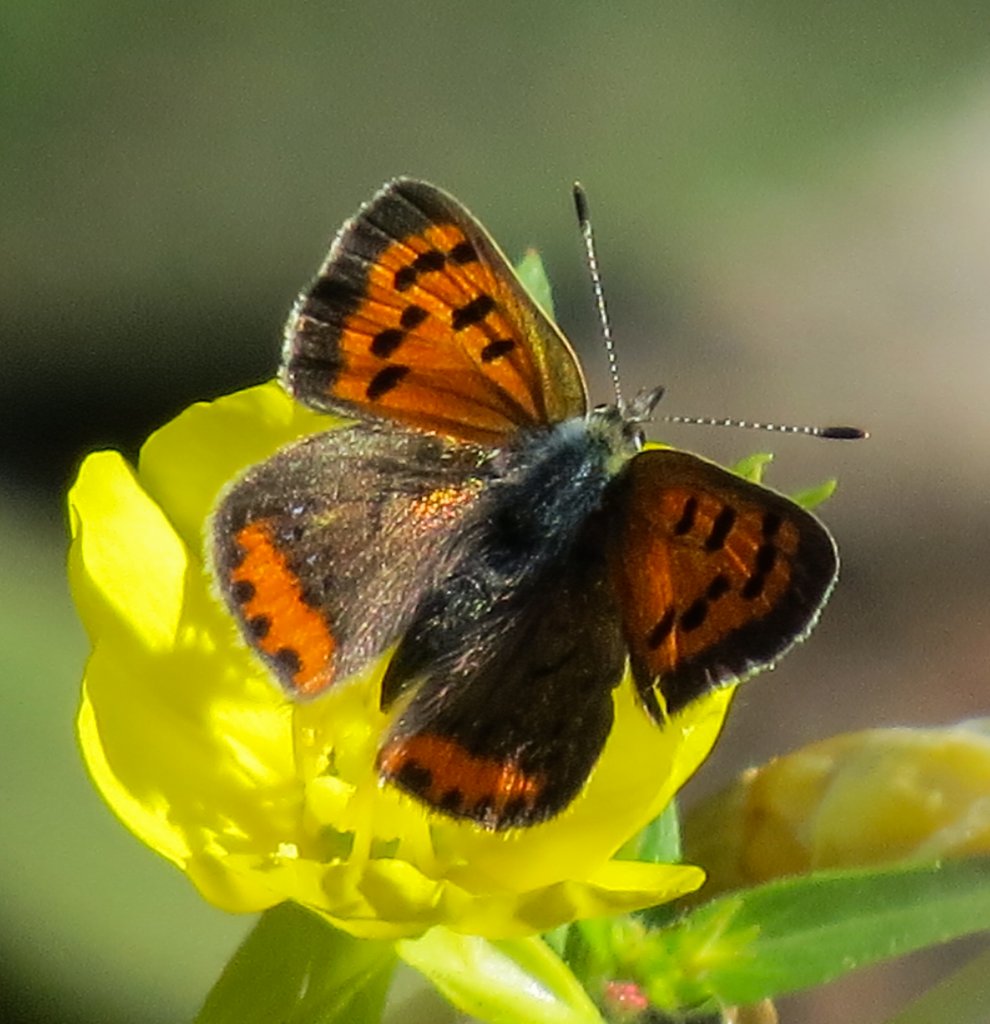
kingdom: Animalia
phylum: Arthropoda
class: Insecta
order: Lepidoptera
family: Lycaenidae
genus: Lycaena
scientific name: Lycaena phlaeas
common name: American Copper
